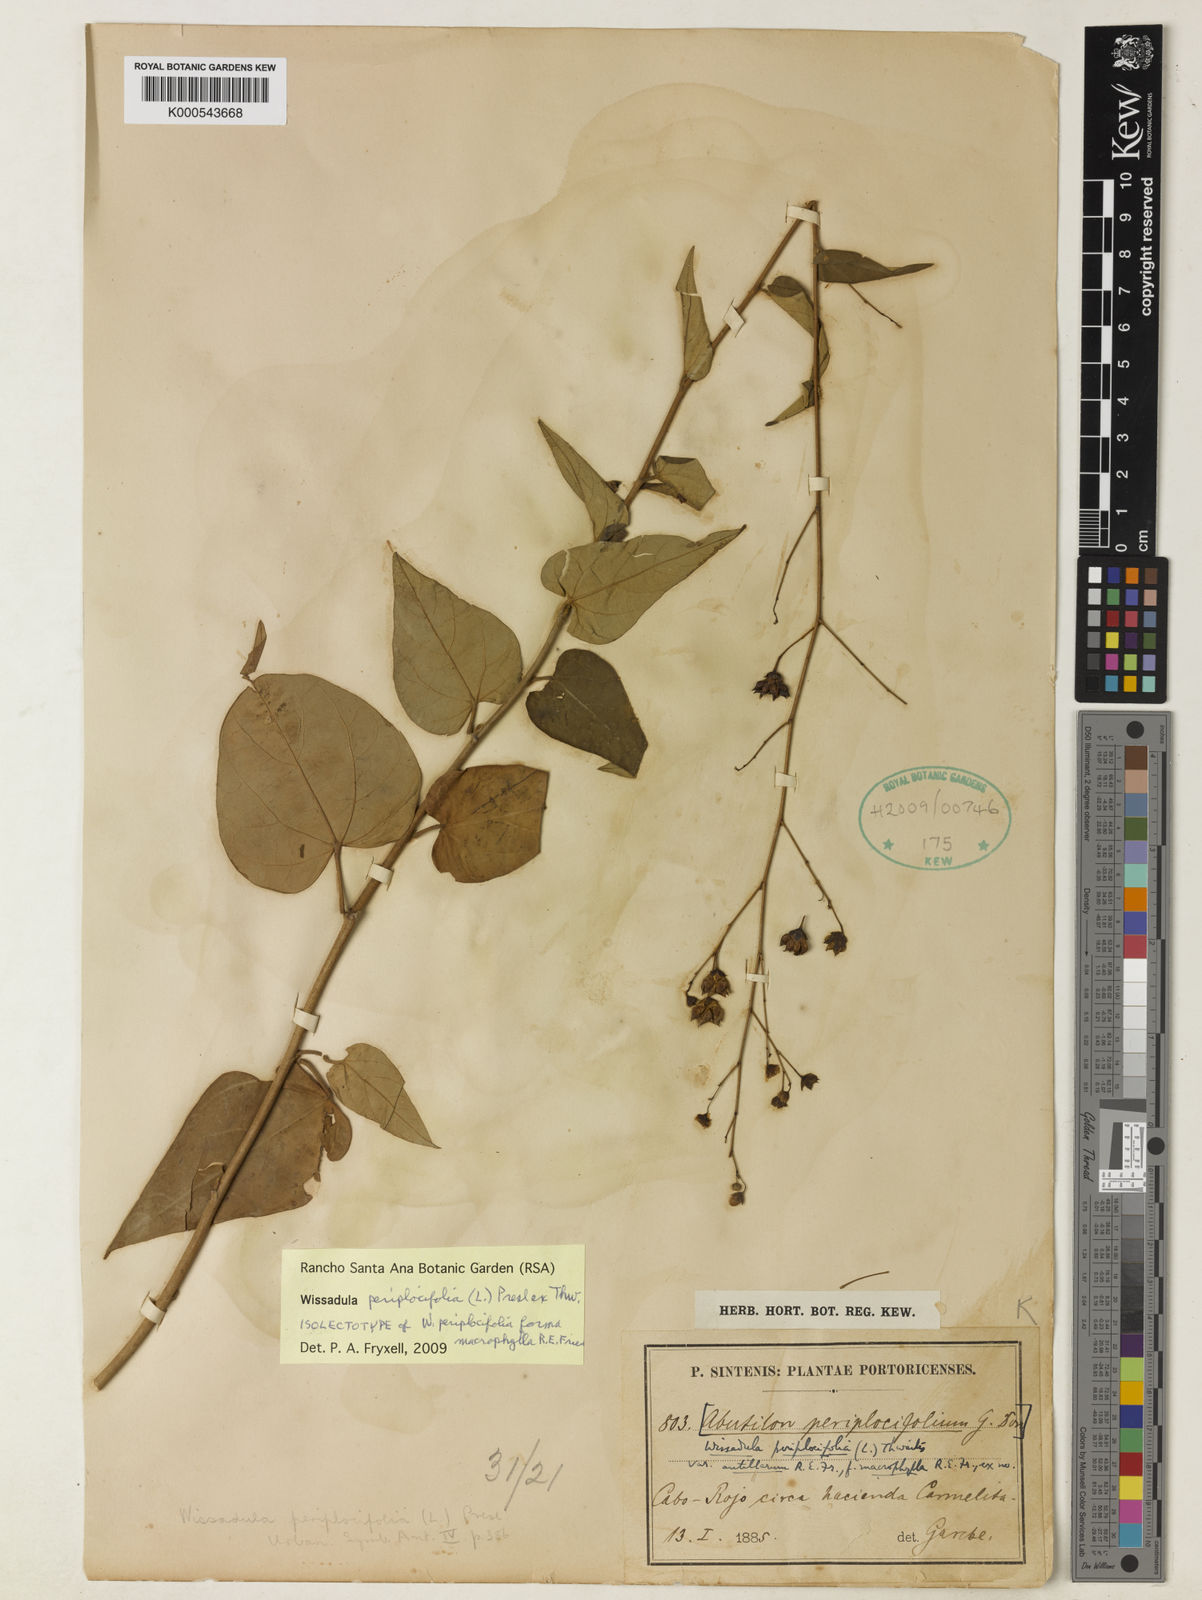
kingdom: Plantae
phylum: Tracheophyta
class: Magnoliopsida
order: Malvales
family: Malvaceae
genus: Wissadula
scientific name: Wissadula
